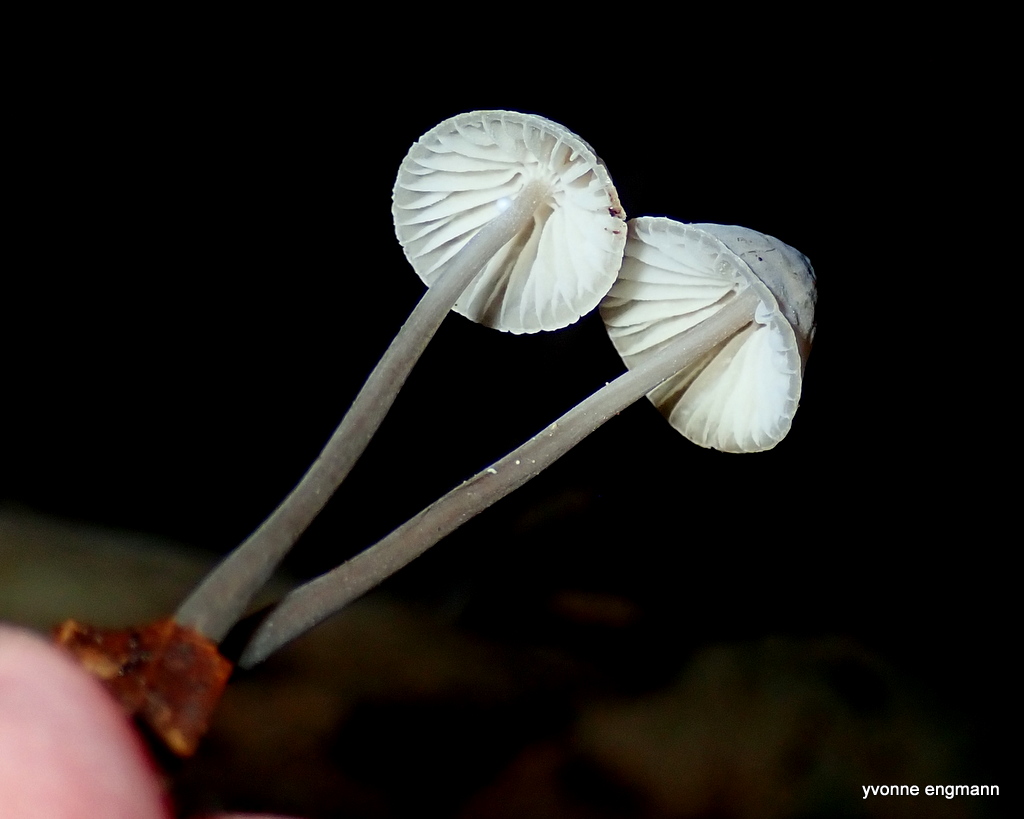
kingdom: Fungi
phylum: Basidiomycota
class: Agaricomycetes
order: Agaricales
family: Mycenaceae
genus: Mycena
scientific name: Mycena vitilis
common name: blankstokket huesvamp
